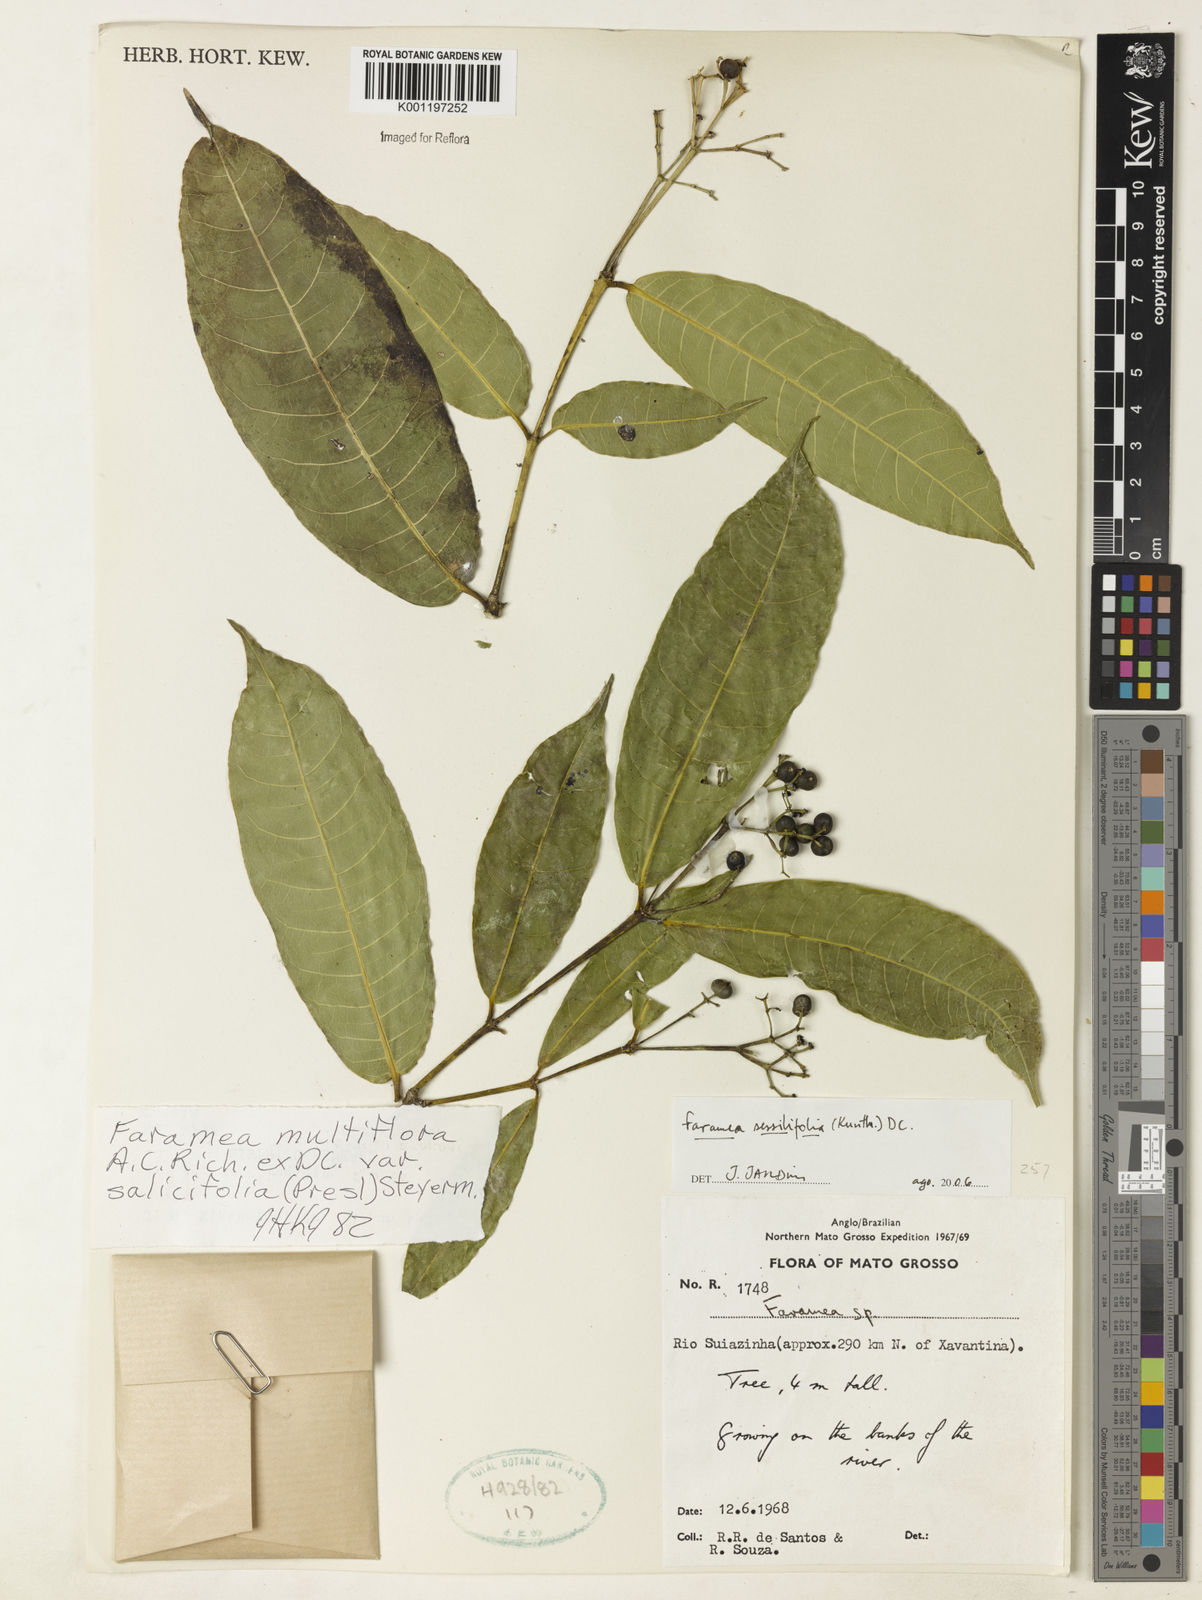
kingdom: Plantae
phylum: Tracheophyta
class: Magnoliopsida
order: Gentianales
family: Rubiaceae
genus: Faramea
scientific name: Faramea sessilifolia
